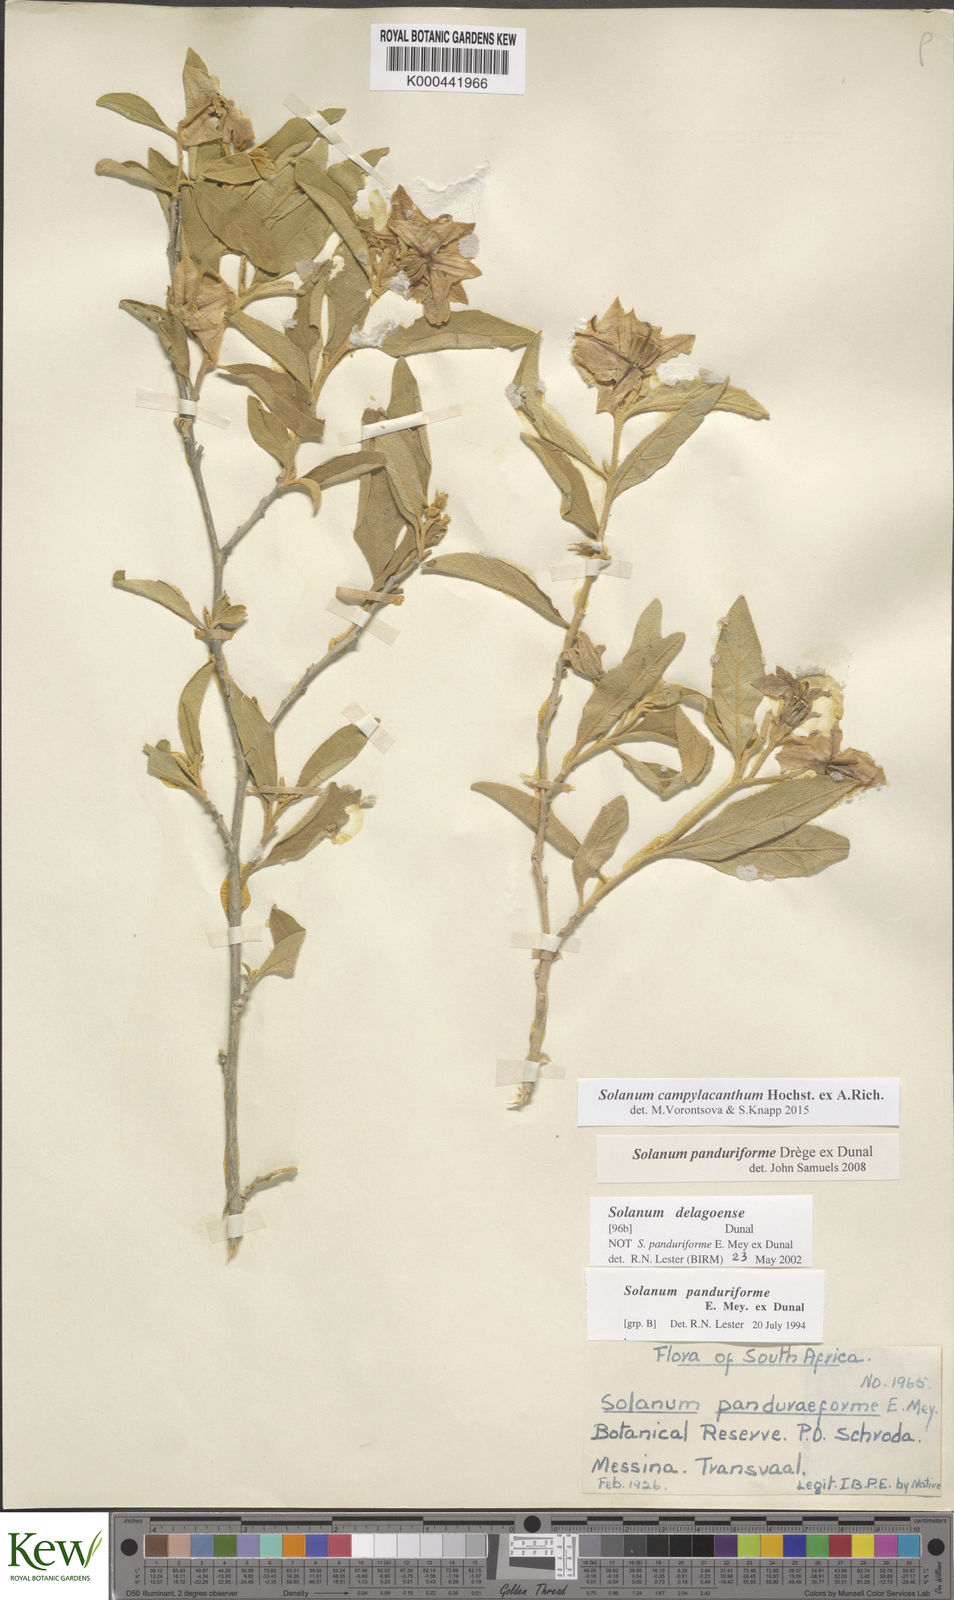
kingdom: Plantae
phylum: Tracheophyta
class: Magnoliopsida
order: Solanales
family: Solanaceae
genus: Solanum
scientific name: Solanum campylacanthum
